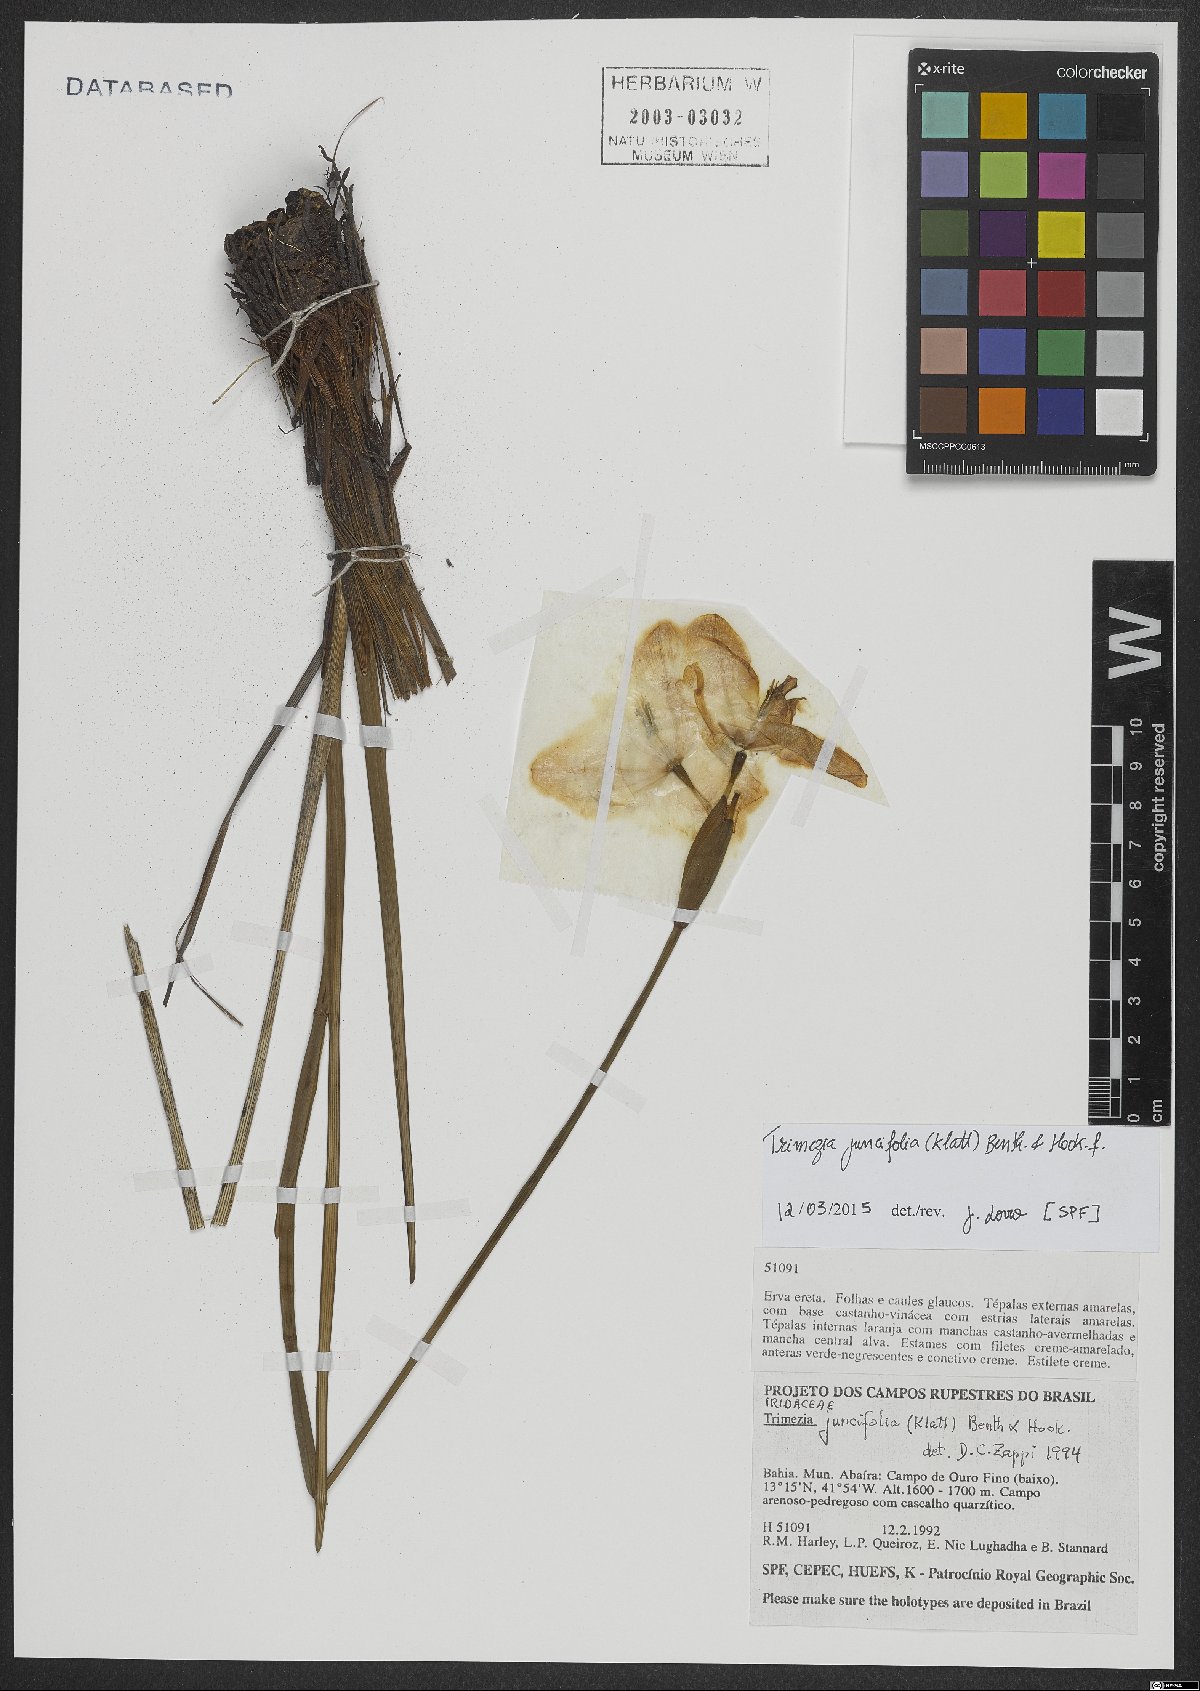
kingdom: Plantae
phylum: Tracheophyta
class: Liliopsida
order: Asparagales
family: Iridaceae
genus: Trimezia
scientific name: Trimezia juncifolia
